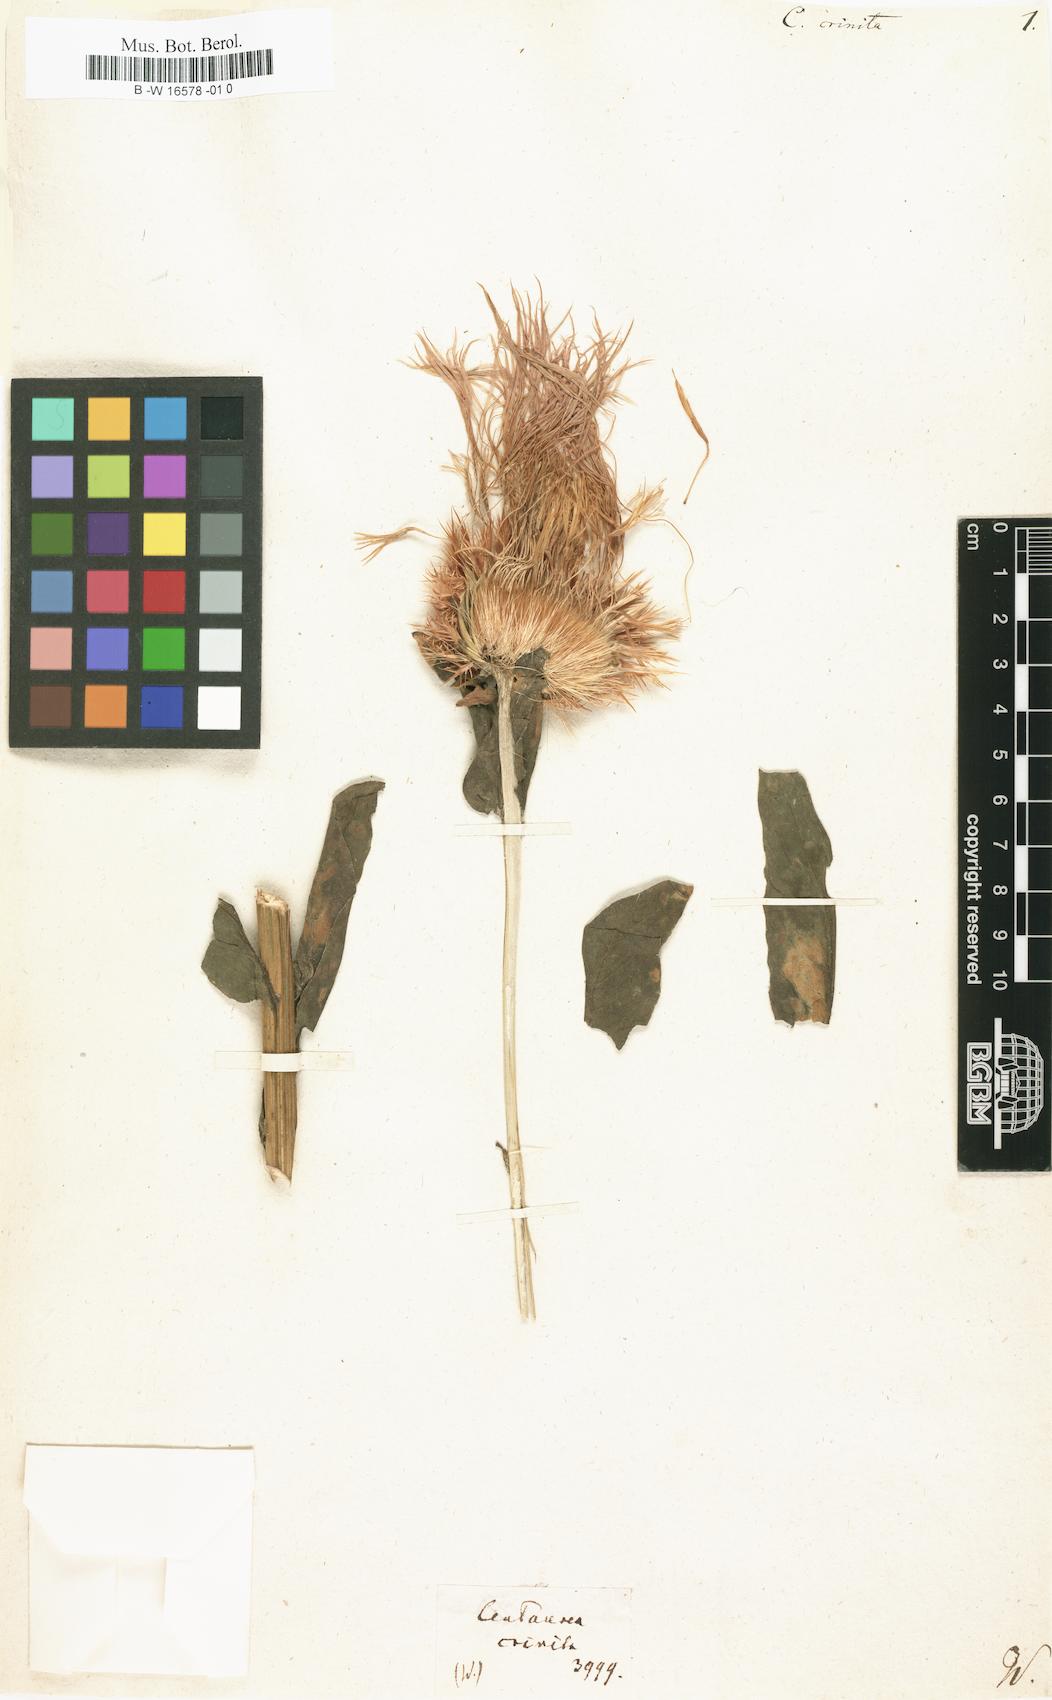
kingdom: Plantae
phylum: Tracheophyta
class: Magnoliopsida
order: Asterales
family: Asteraceae
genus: Centaurea
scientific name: Centaurea crinita
